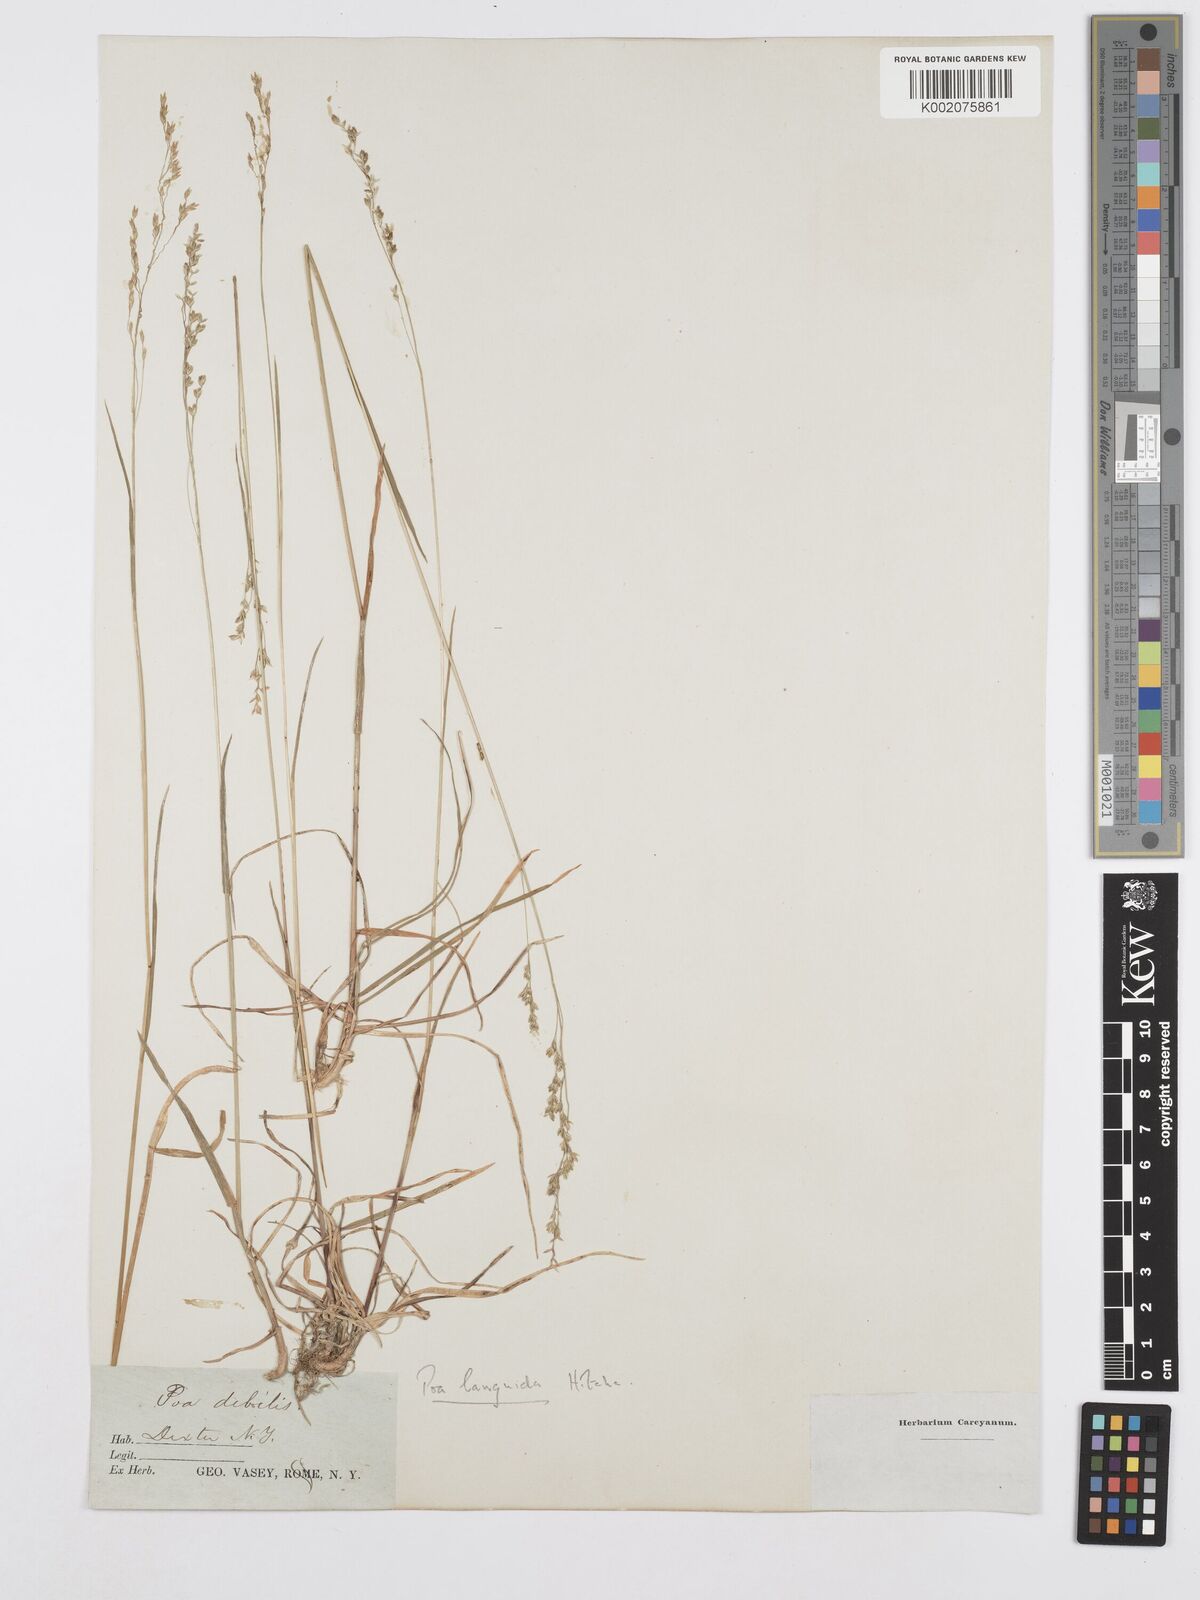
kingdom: Plantae
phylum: Tracheophyta
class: Liliopsida
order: Poales
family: Poaceae
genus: Poa
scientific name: Poa saltuensis
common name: Bushy pasture speargrass
